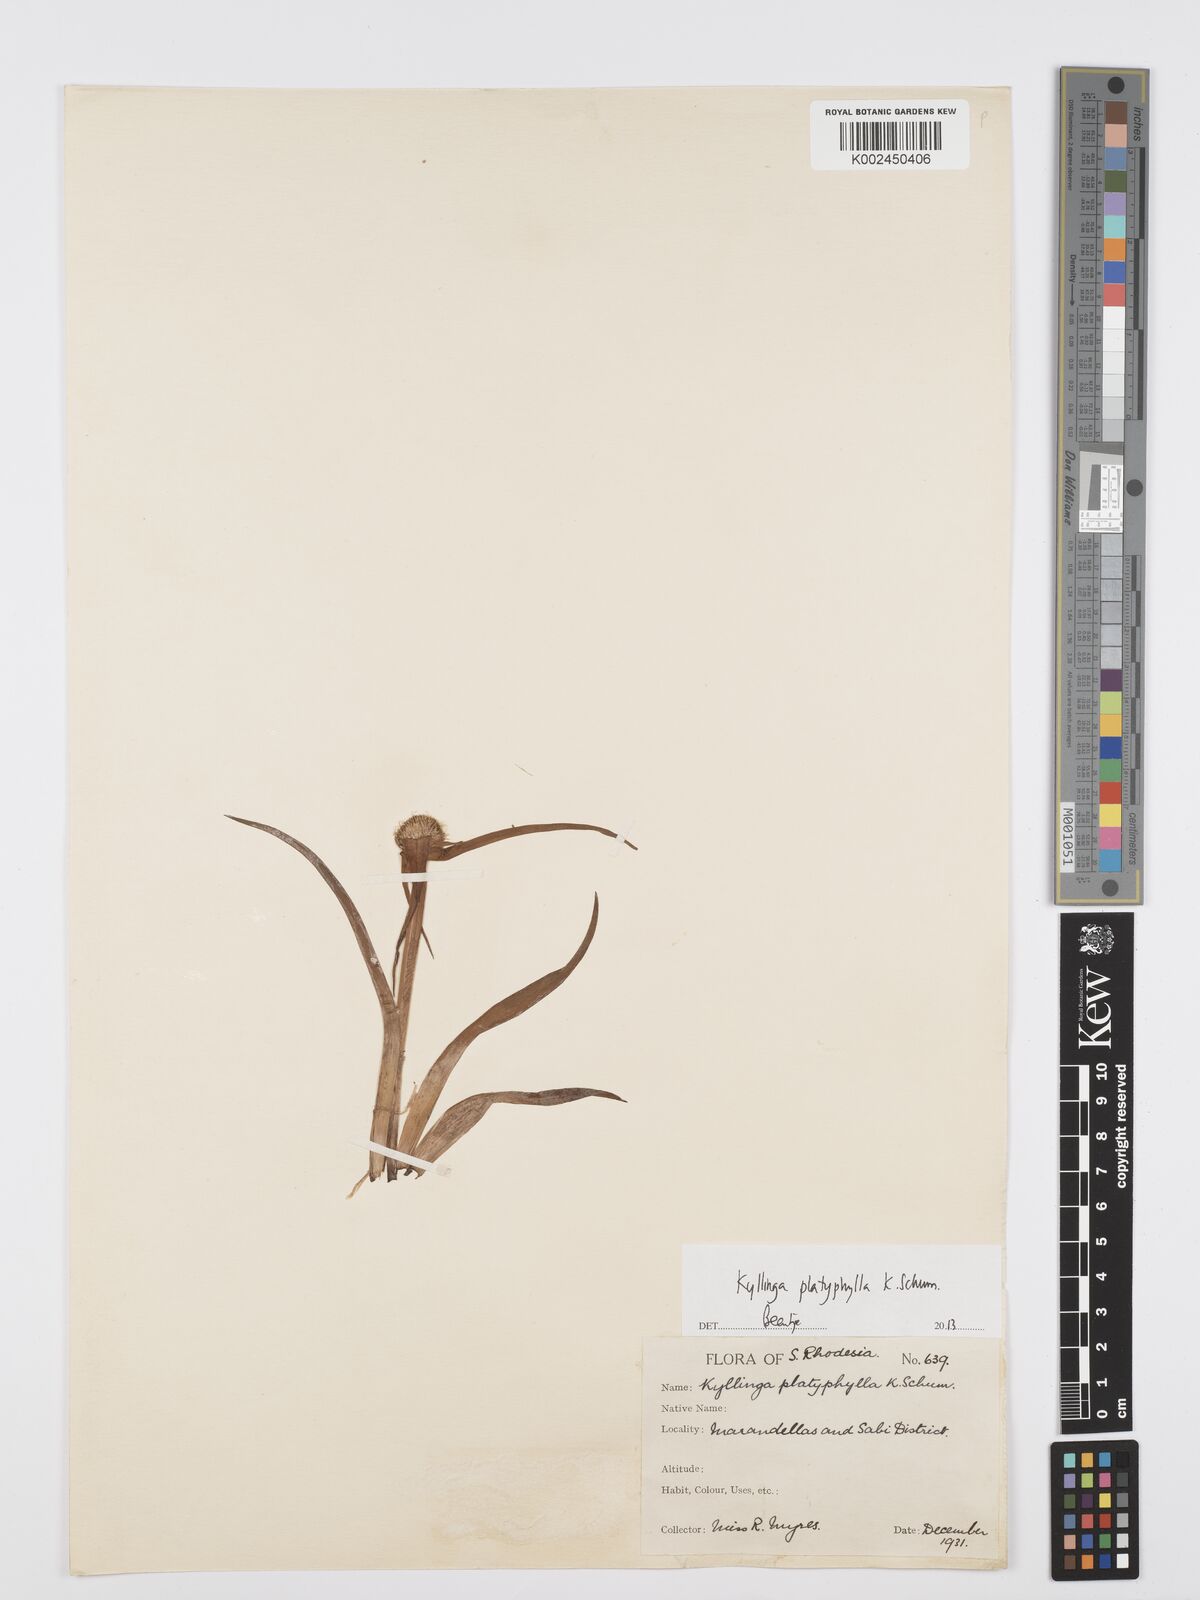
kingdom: Plantae
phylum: Tracheophyta
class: Liliopsida
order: Poales
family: Cyperaceae
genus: Cyperus
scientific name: Cyperus bulbosus
